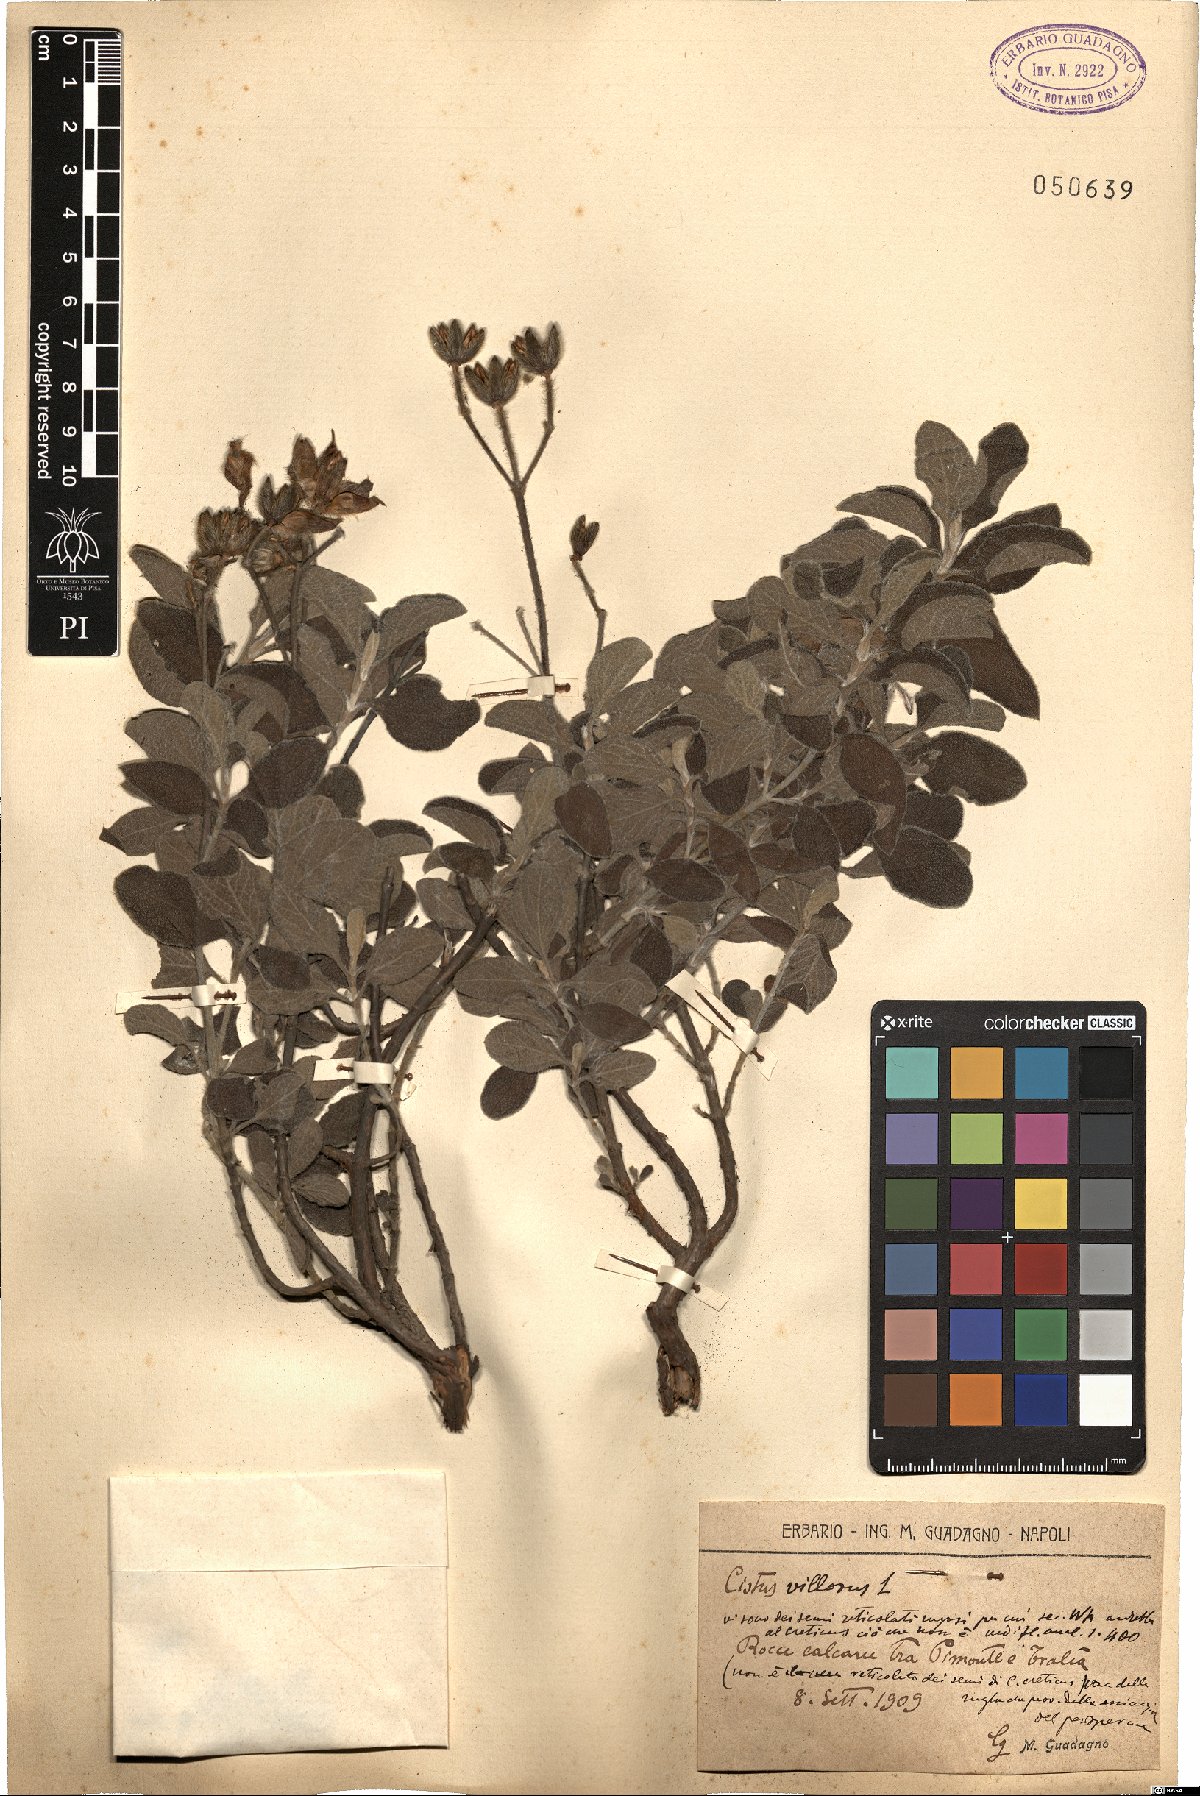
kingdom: Plantae
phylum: Tracheophyta
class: Magnoliopsida
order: Malvales
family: Cistaceae
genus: Cistus
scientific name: Cistus creticus
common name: Cretan rockrose
